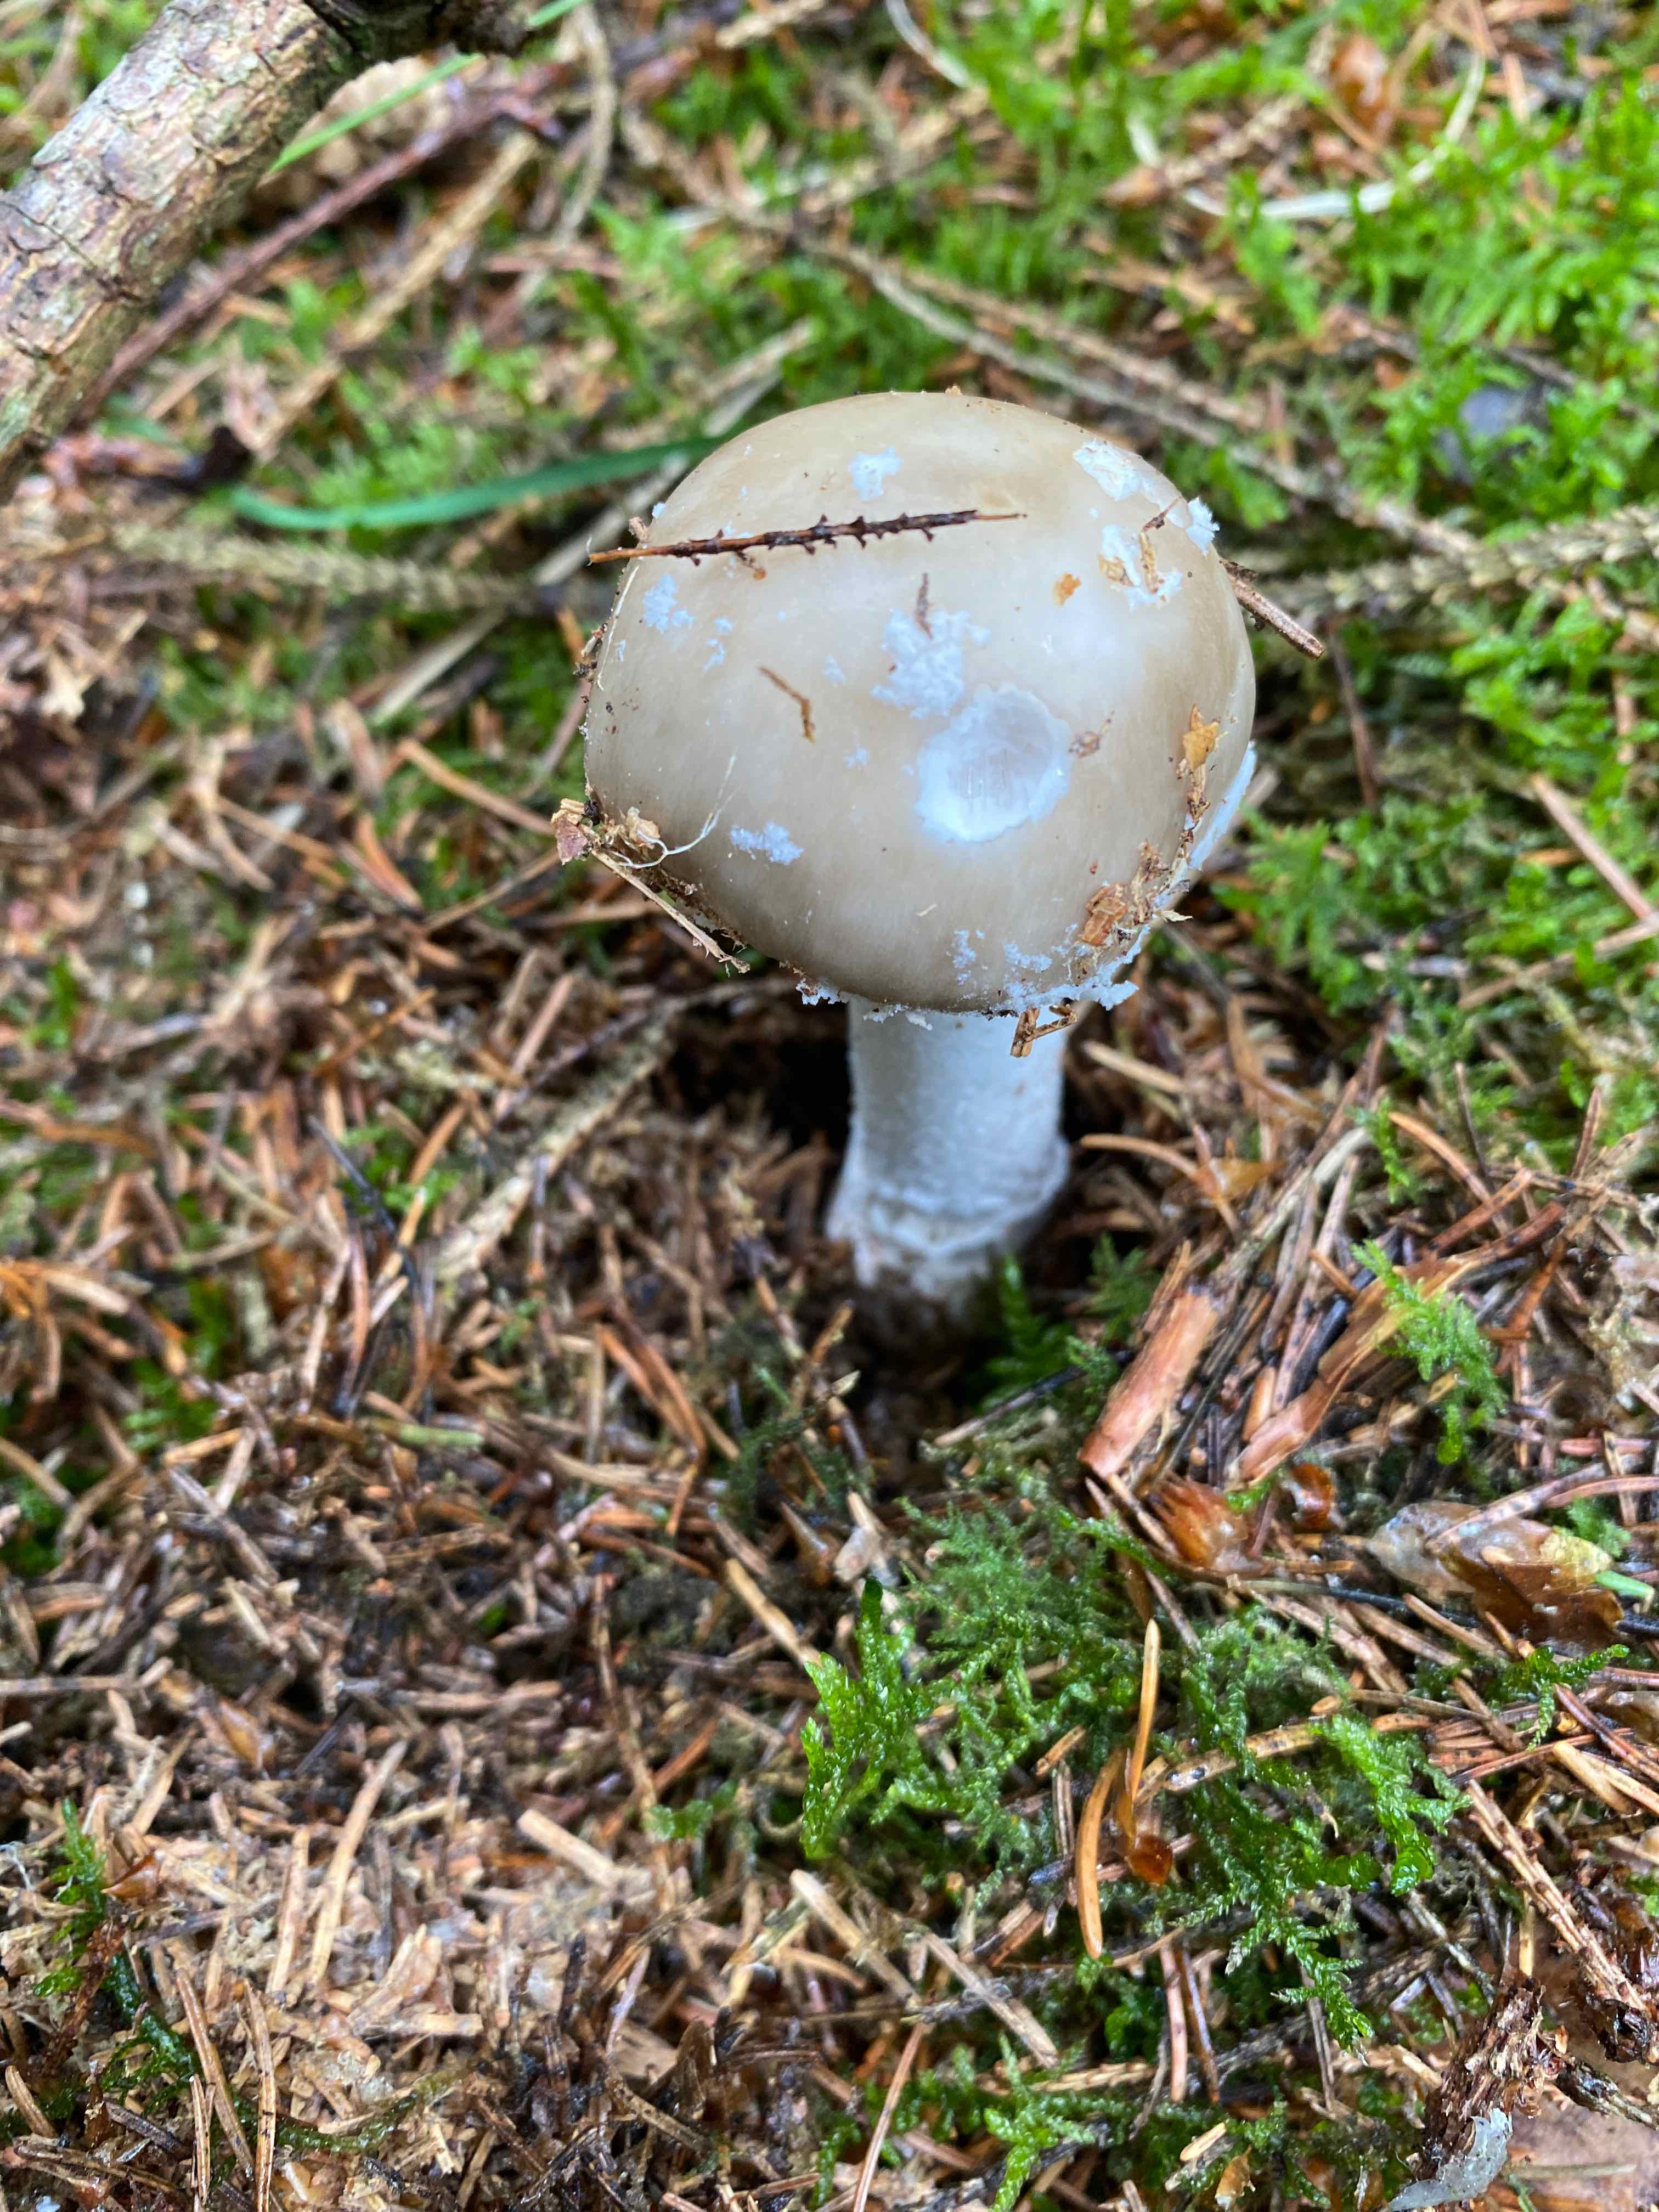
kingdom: Fungi
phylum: Basidiomycota
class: Agaricomycetes
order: Agaricales
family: Amanitaceae
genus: Amanita
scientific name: Amanita
